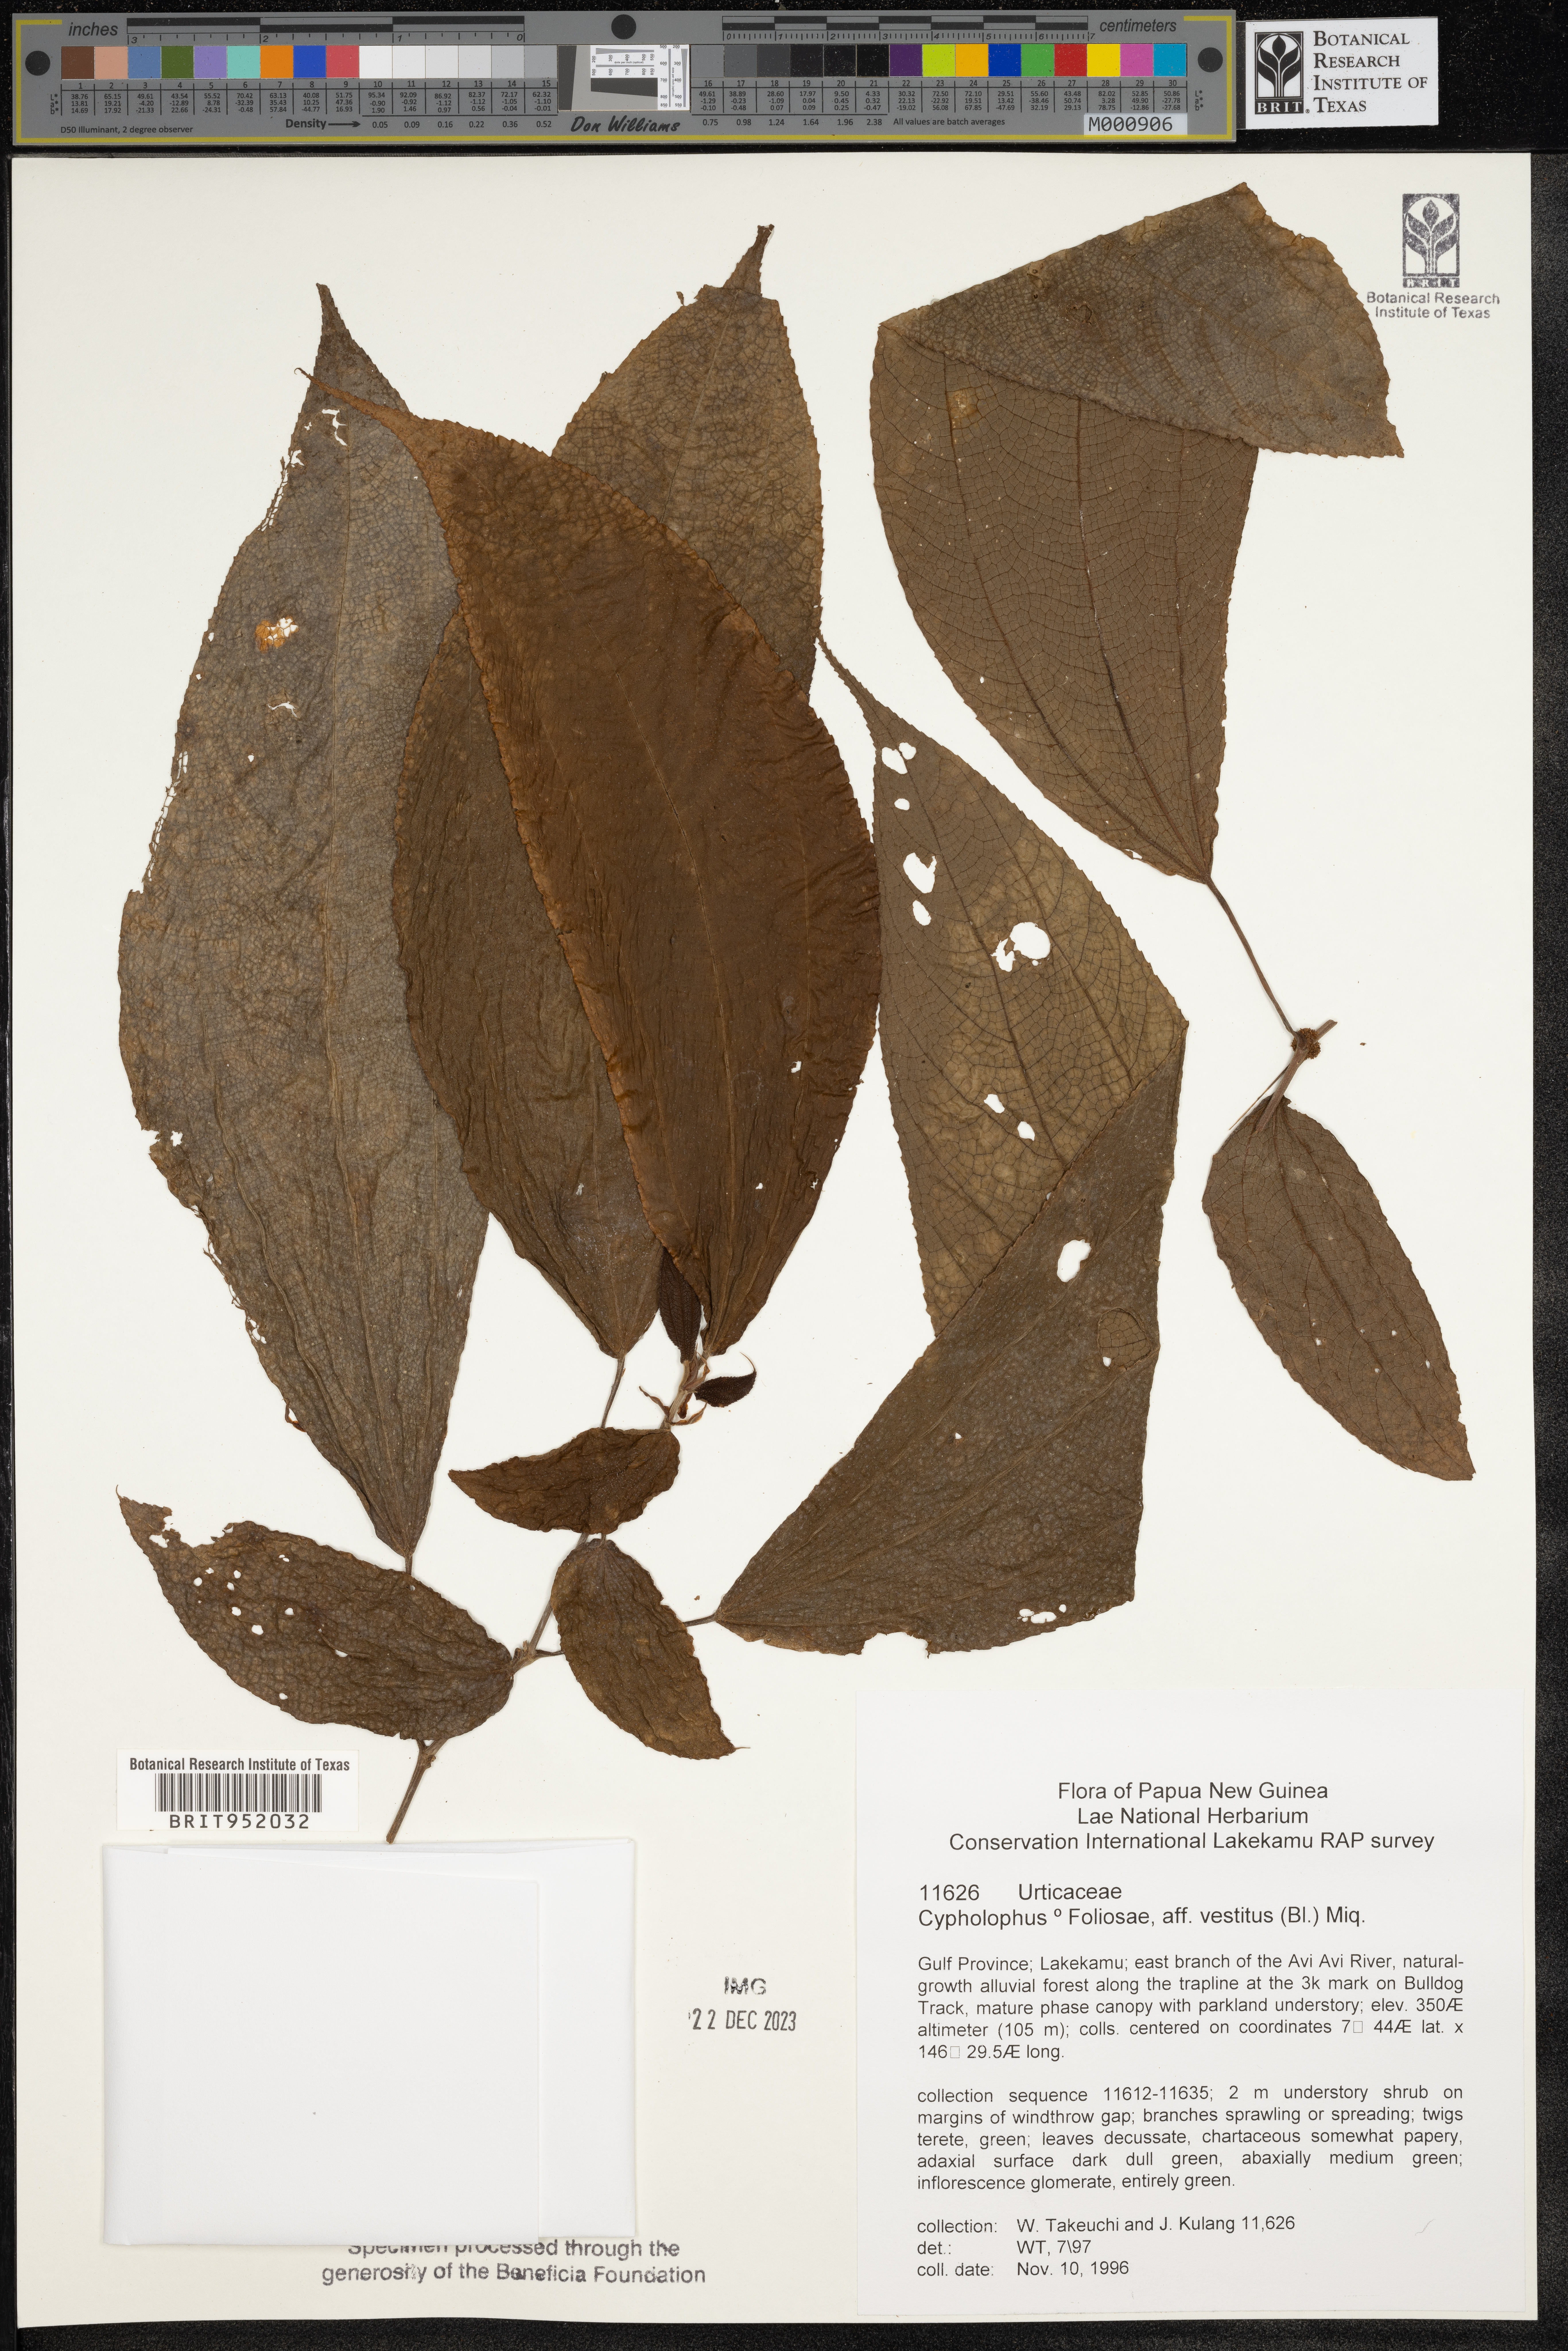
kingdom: Plantae
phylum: Tracheophyta
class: Magnoliopsida
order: Rosales
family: Urticaceae
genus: Cypholophus
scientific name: Cypholophus
